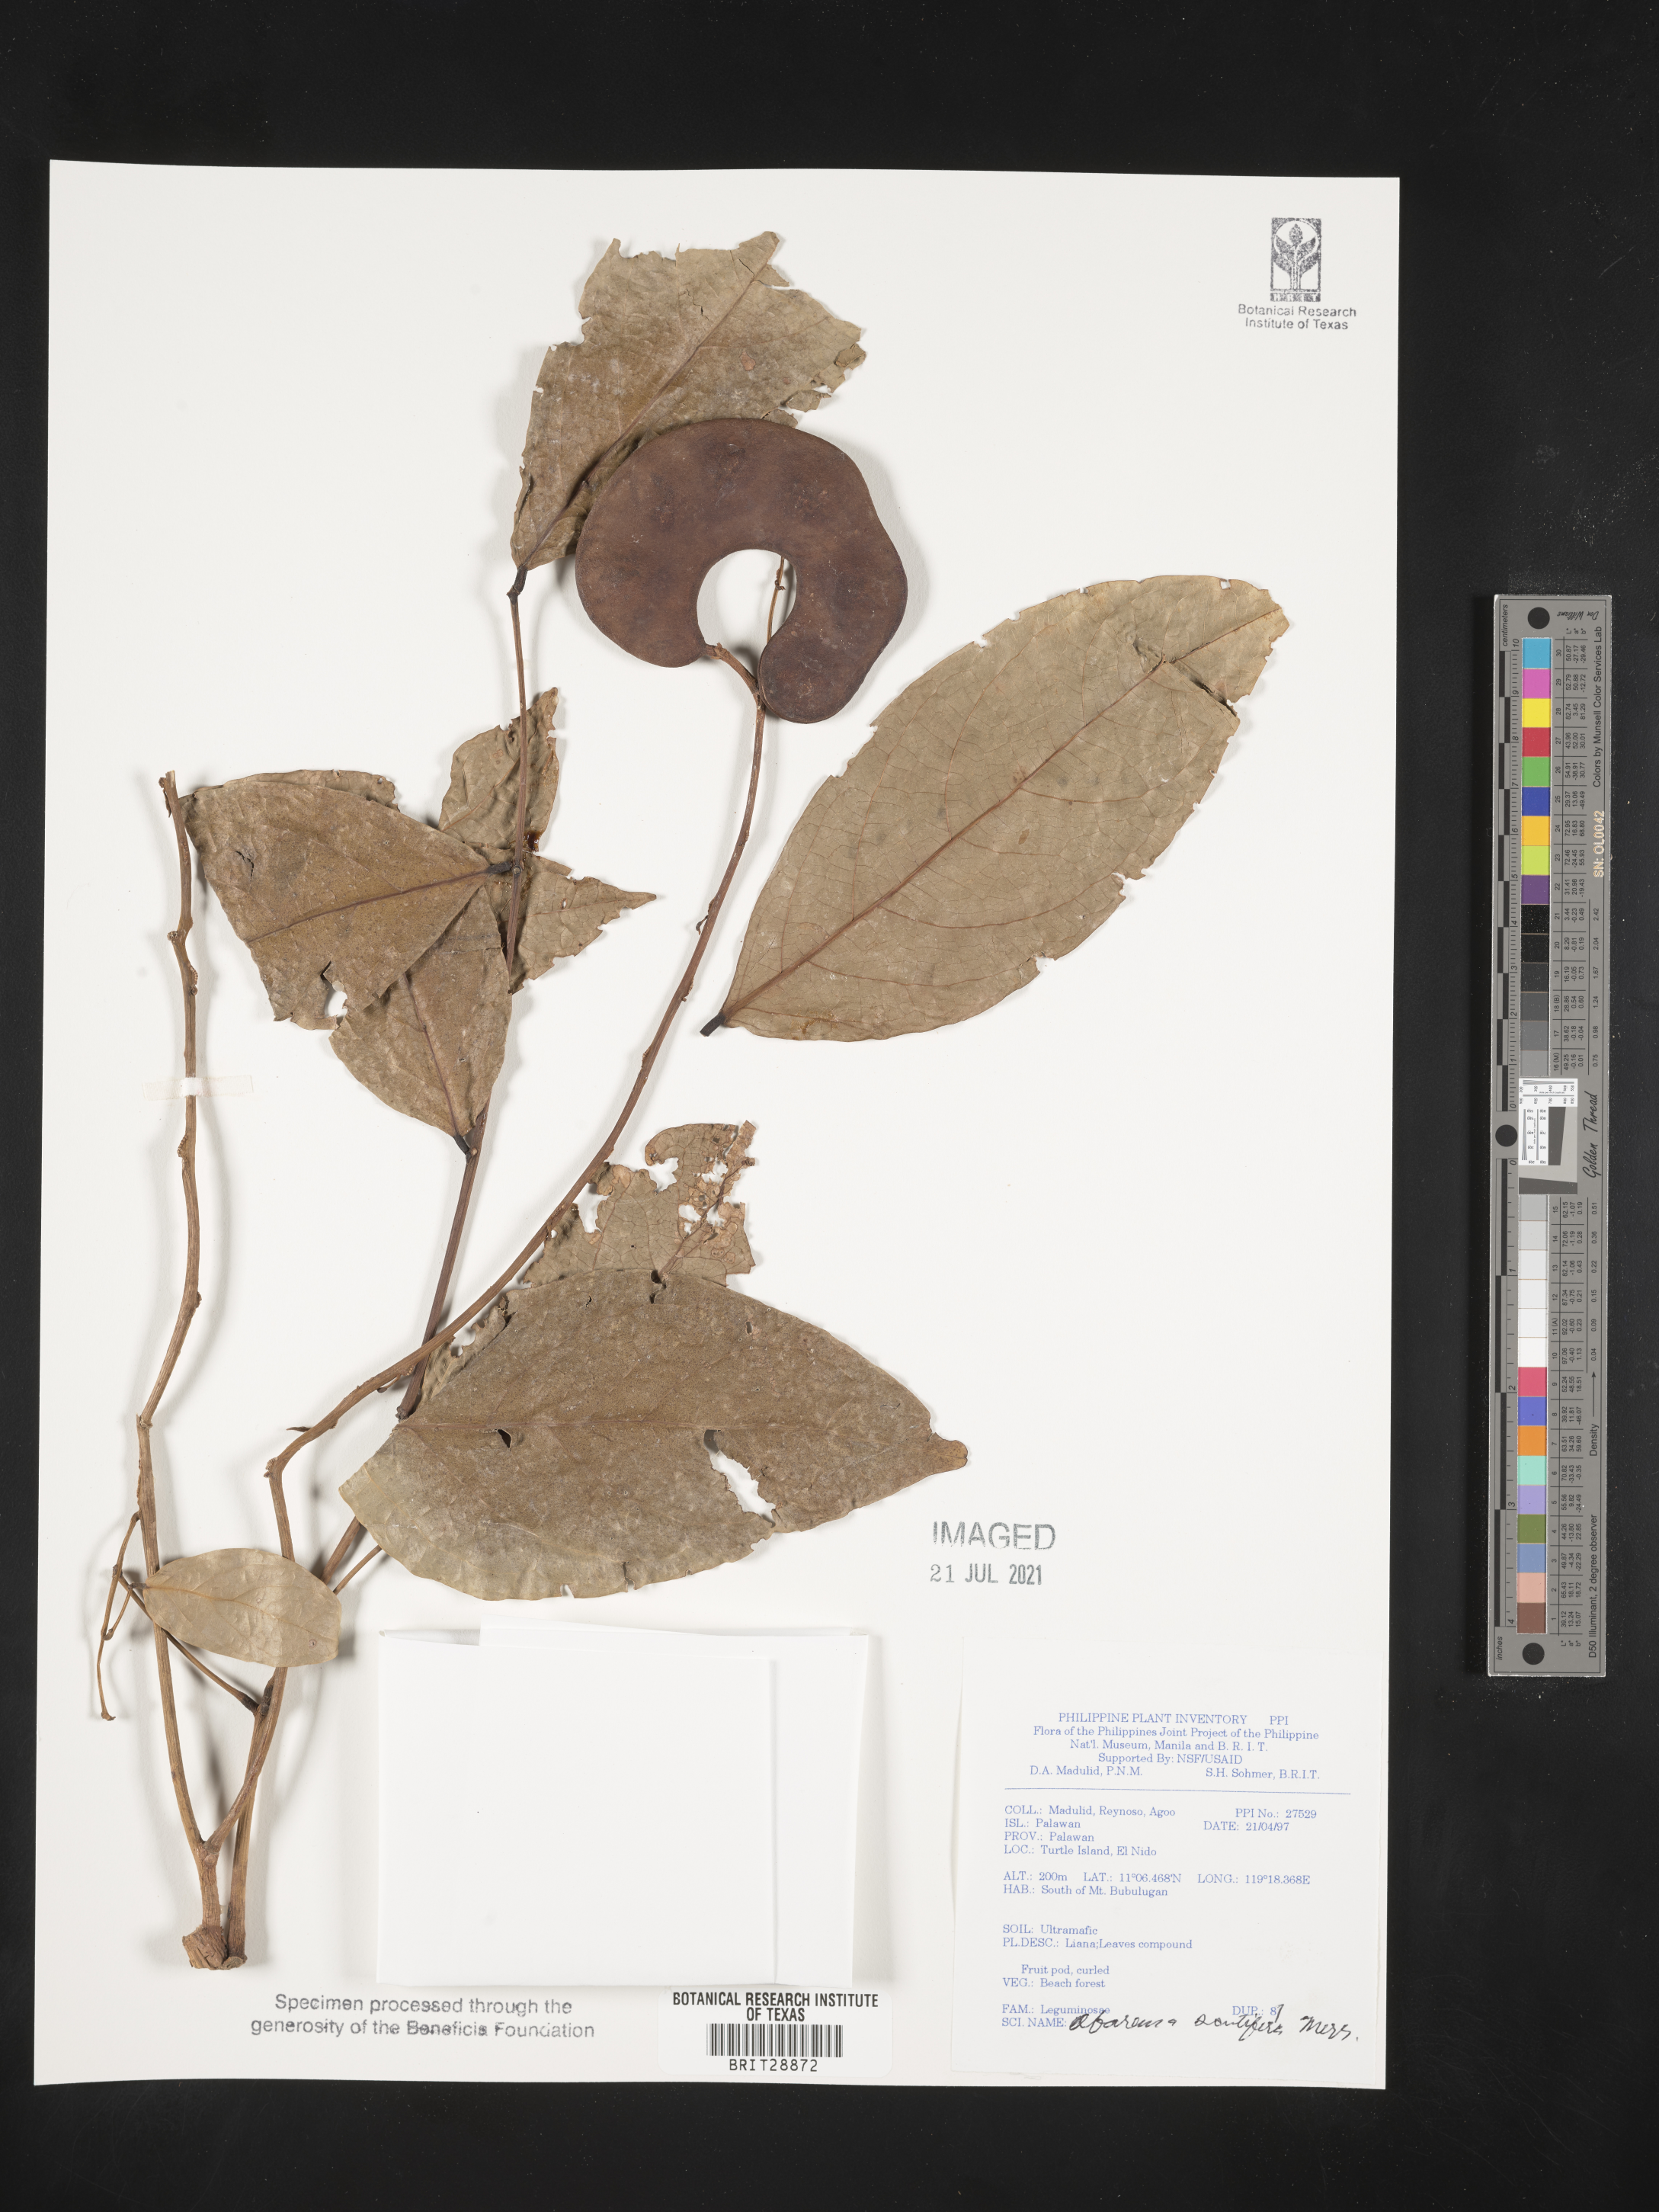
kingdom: Plantae
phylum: Tracheophyta
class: Magnoliopsida
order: Fabales
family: Fabaceae
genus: Archidendron
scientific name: Archidendron scutiferum
